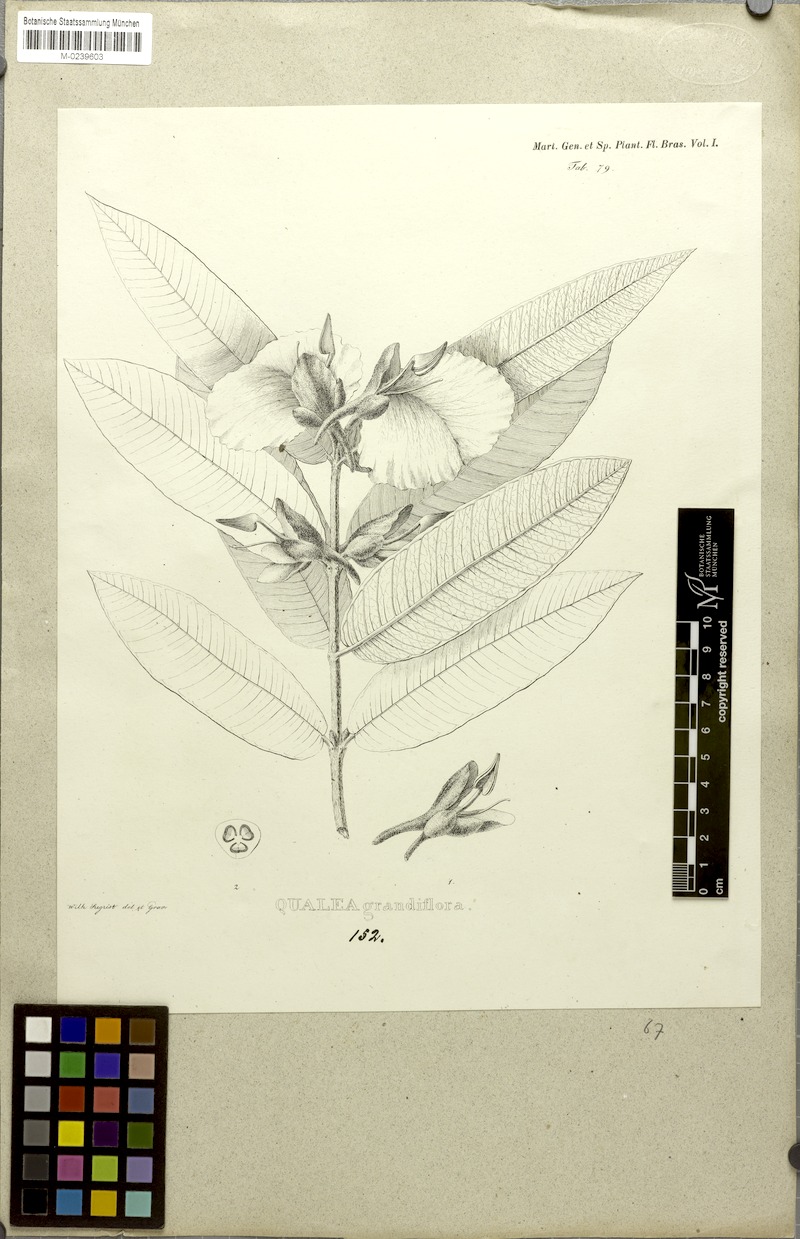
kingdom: Plantae
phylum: Tracheophyta
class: Magnoliopsida
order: Myrtales
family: Vochysiaceae
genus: Qualea
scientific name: Qualea grandiflora
